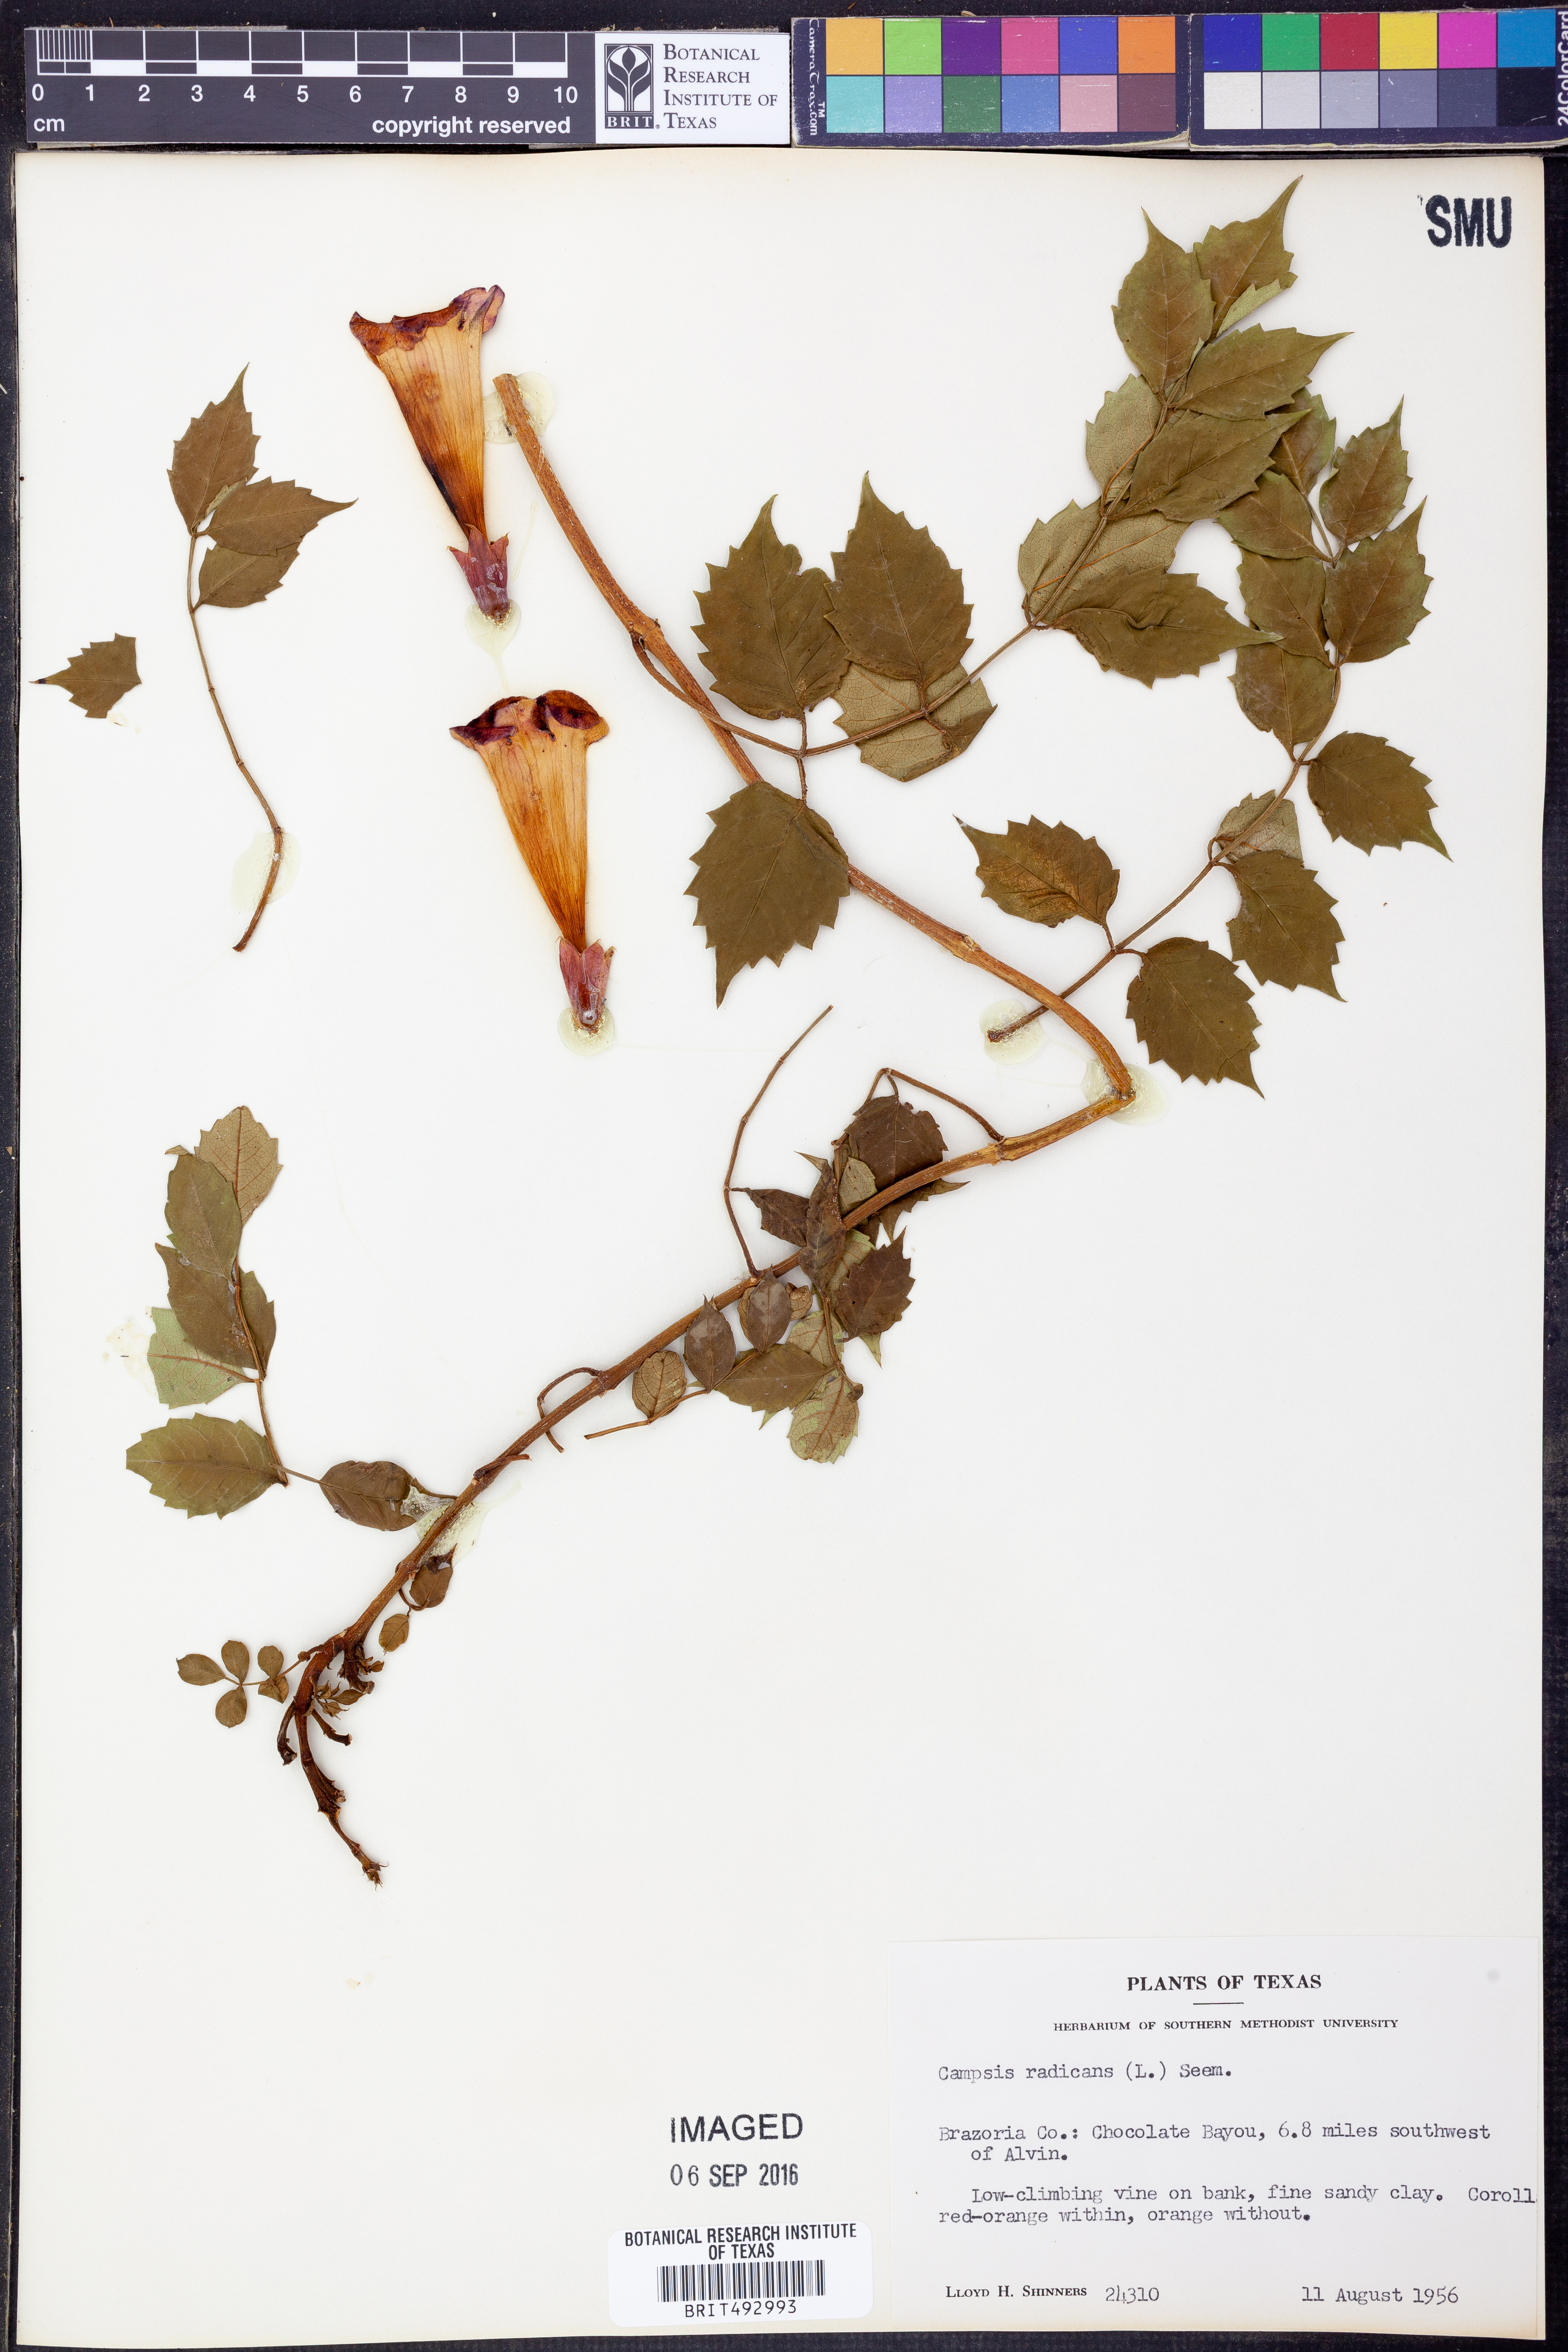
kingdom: Plantae
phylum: Tracheophyta
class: Magnoliopsida
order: Lamiales
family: Bignoniaceae
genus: Campsis
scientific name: Campsis radicans
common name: Trumpet-creeper
